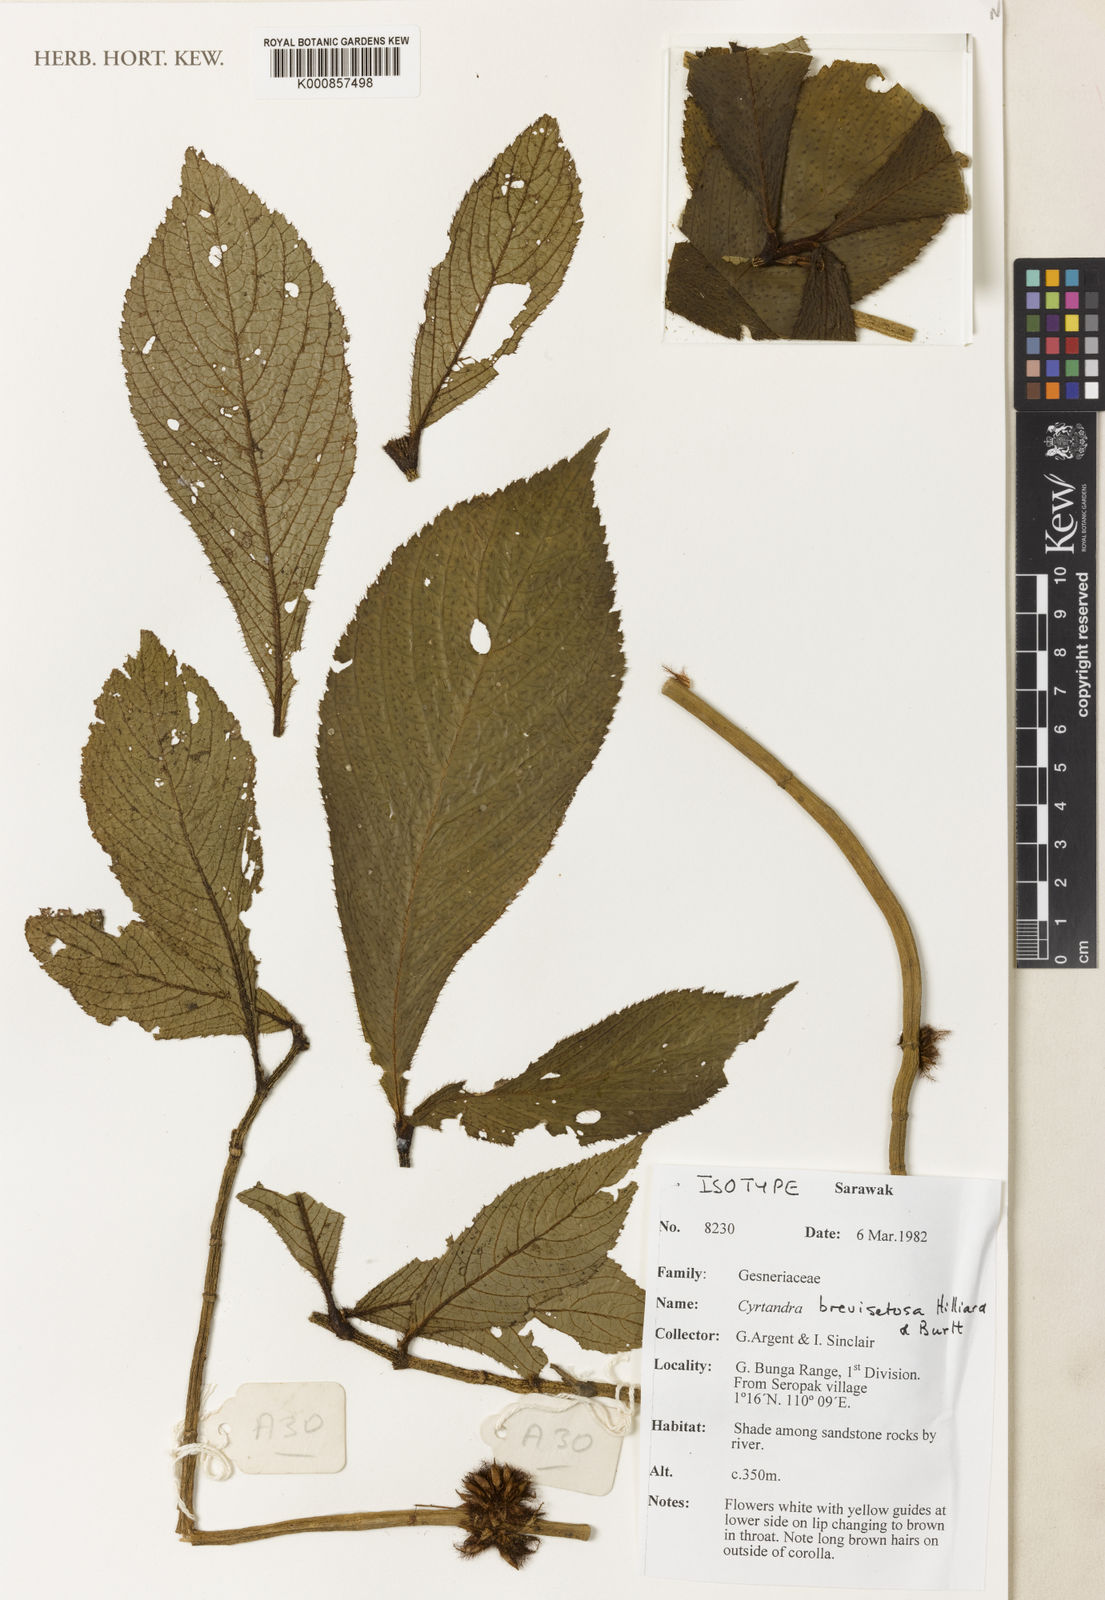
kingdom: Plantae
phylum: Tracheophyta
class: Magnoliopsida
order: Lamiales
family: Gesneriaceae
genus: Cyrtandra
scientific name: Cyrtandra brevisetosa
